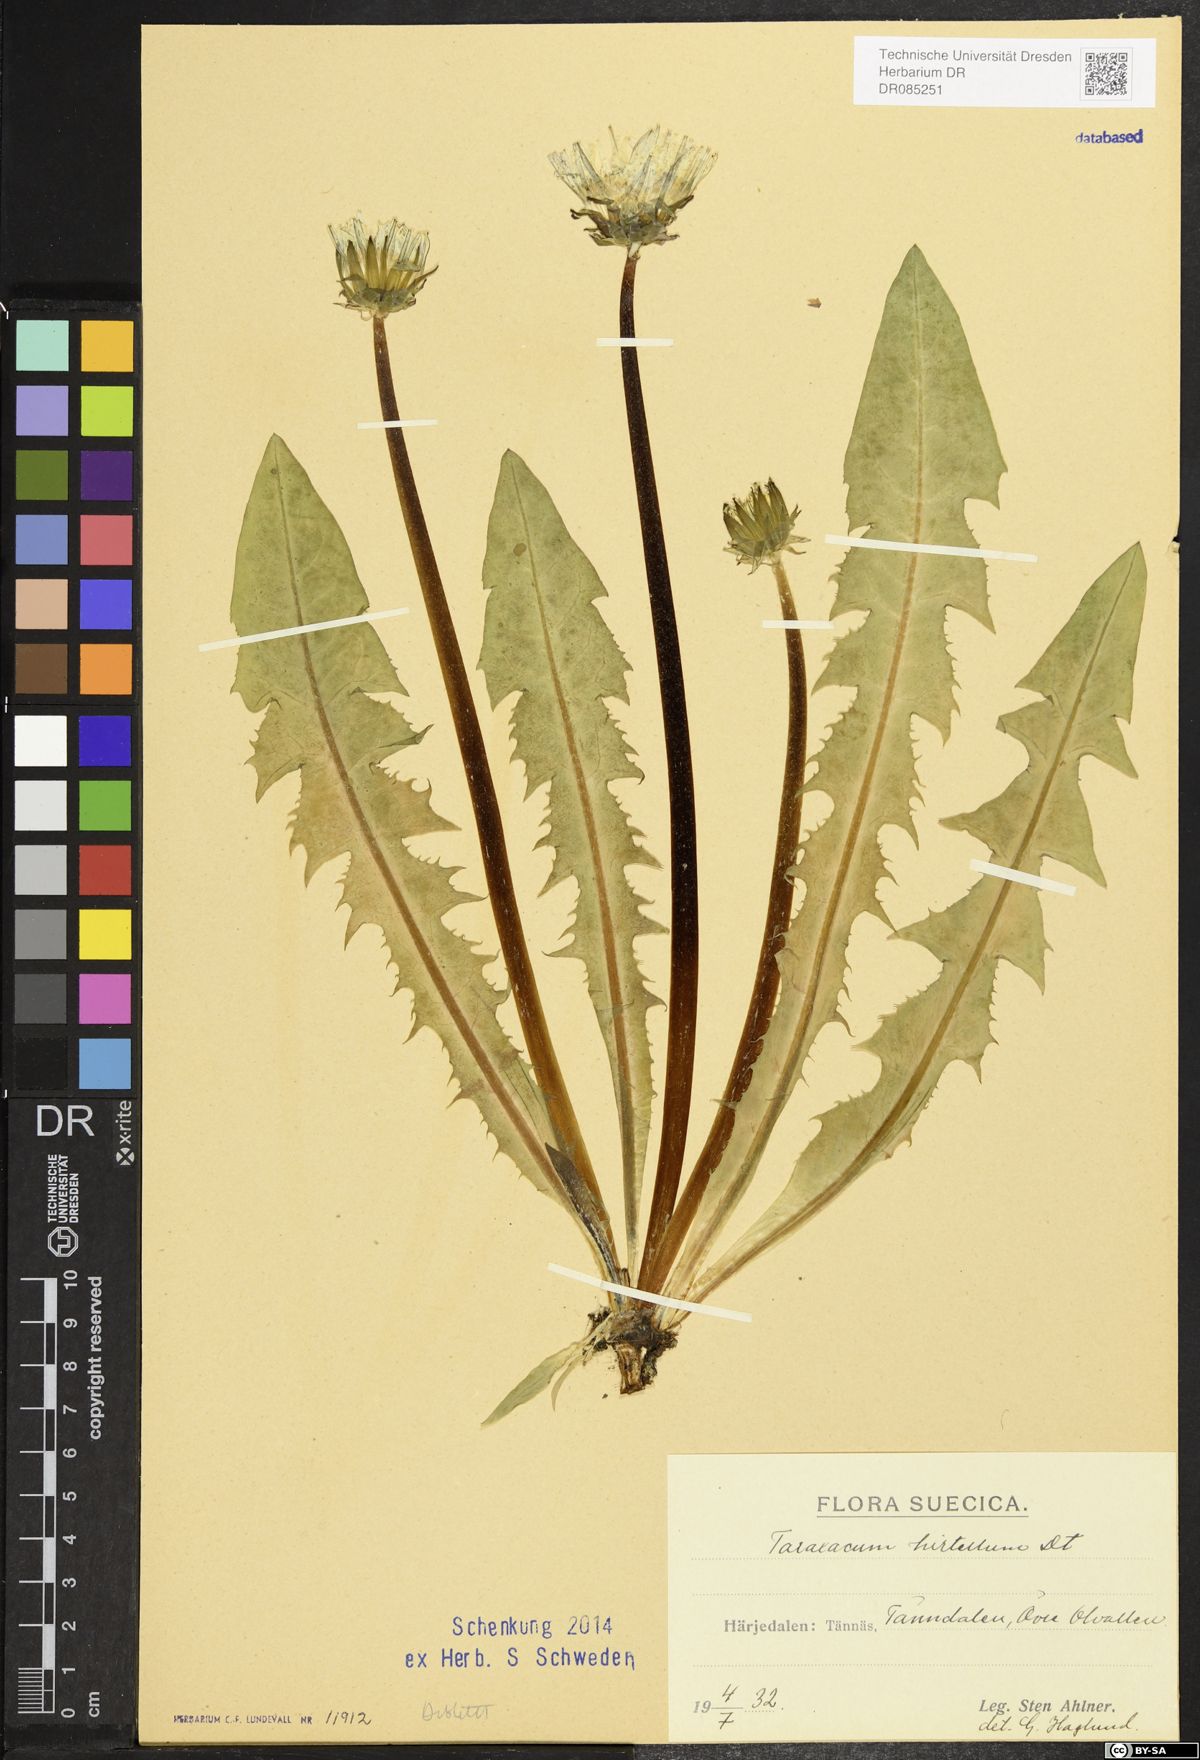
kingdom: Plantae
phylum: Tracheophyta
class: Magnoliopsida
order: Asterales
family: Asteraceae
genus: Taraxacum
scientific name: Taraxacum hirtellum
